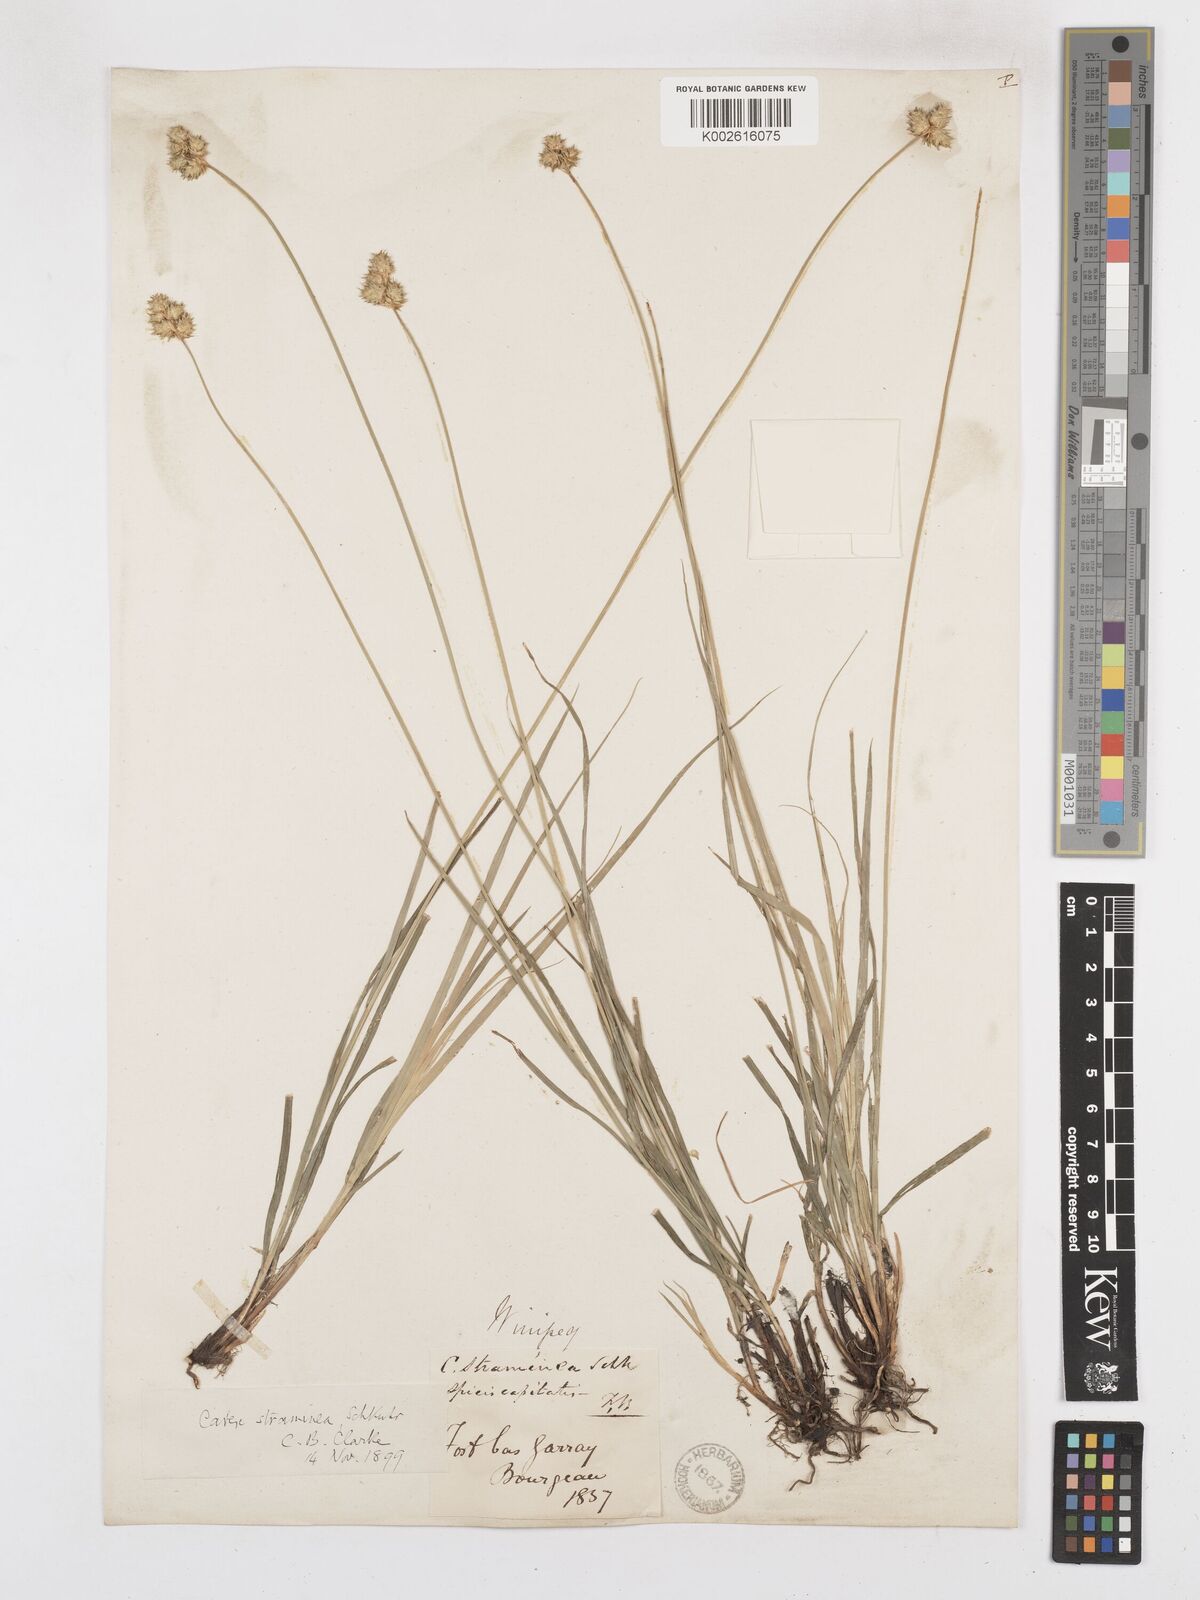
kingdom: Plantae
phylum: Tracheophyta
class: Liliopsida
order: Poales
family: Cyperaceae
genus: Carex
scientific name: Carex brevior
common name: Brevior sedge
